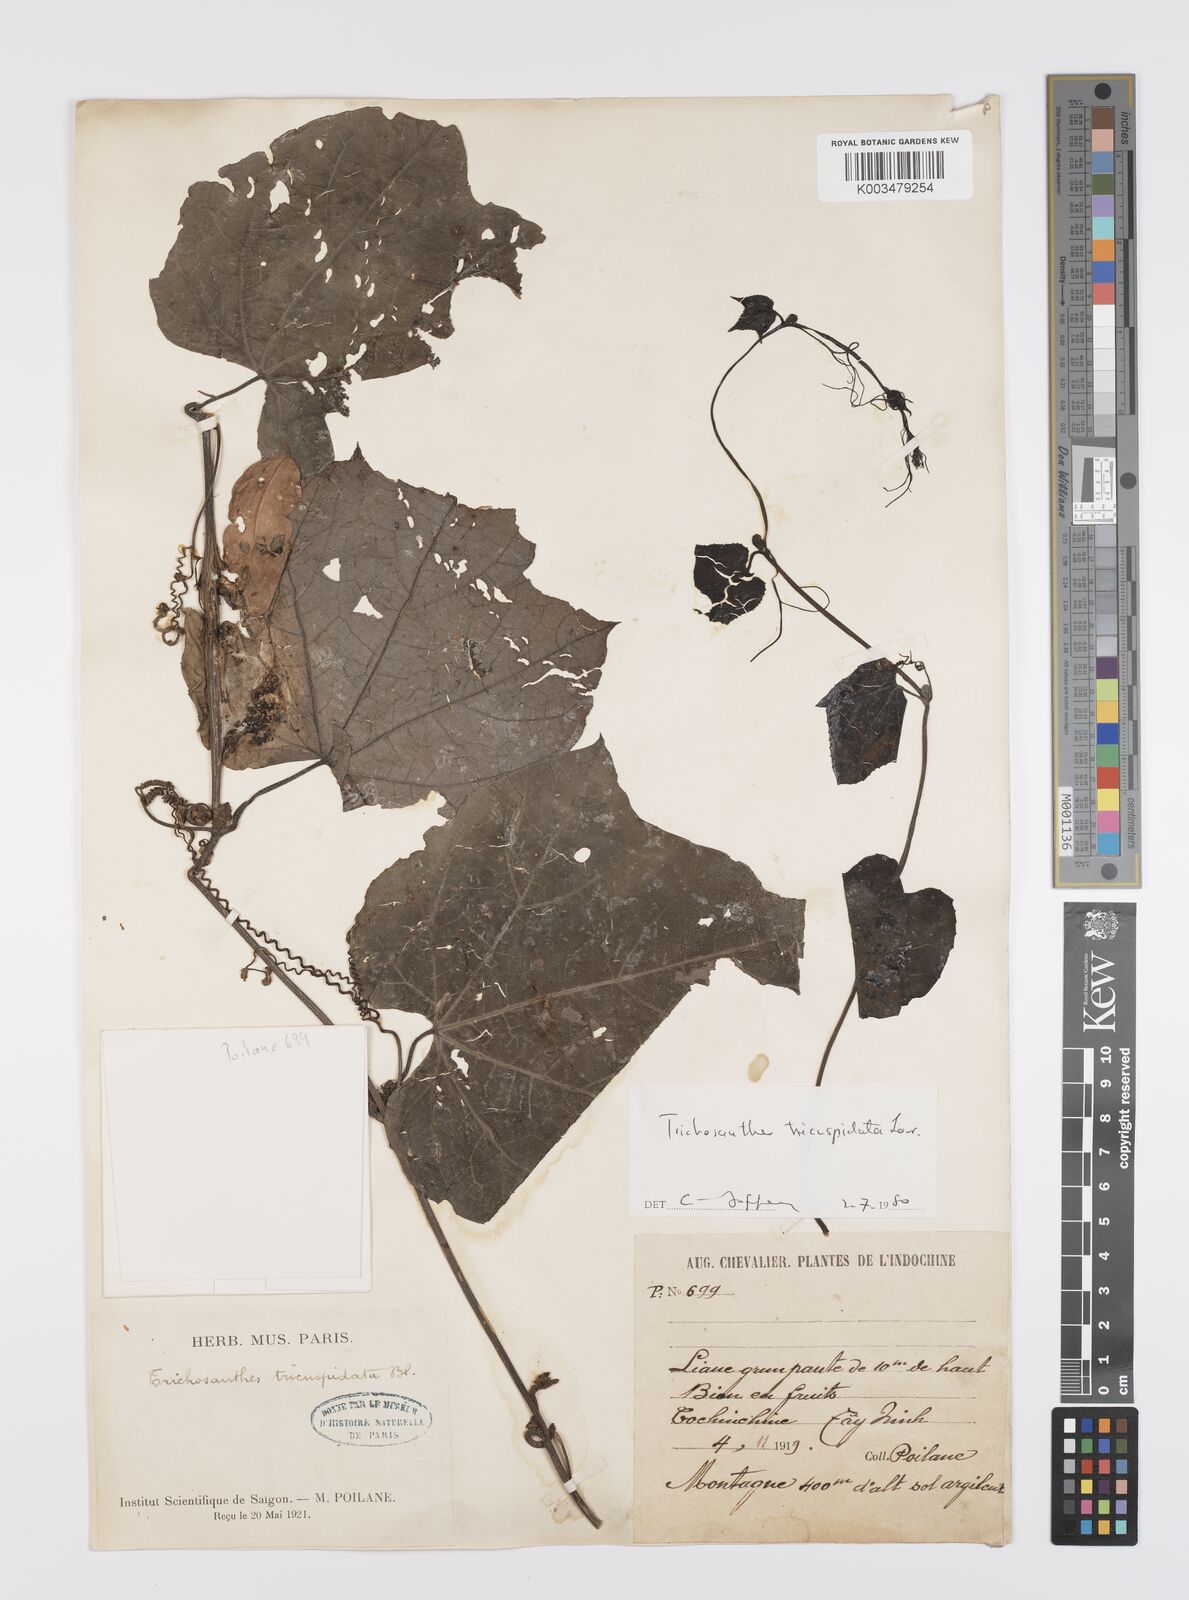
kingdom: Plantae
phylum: Tracheophyta
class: Magnoliopsida
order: Cucurbitales
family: Cucurbitaceae
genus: Trichosanthes
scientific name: Trichosanthes tricuspidata
